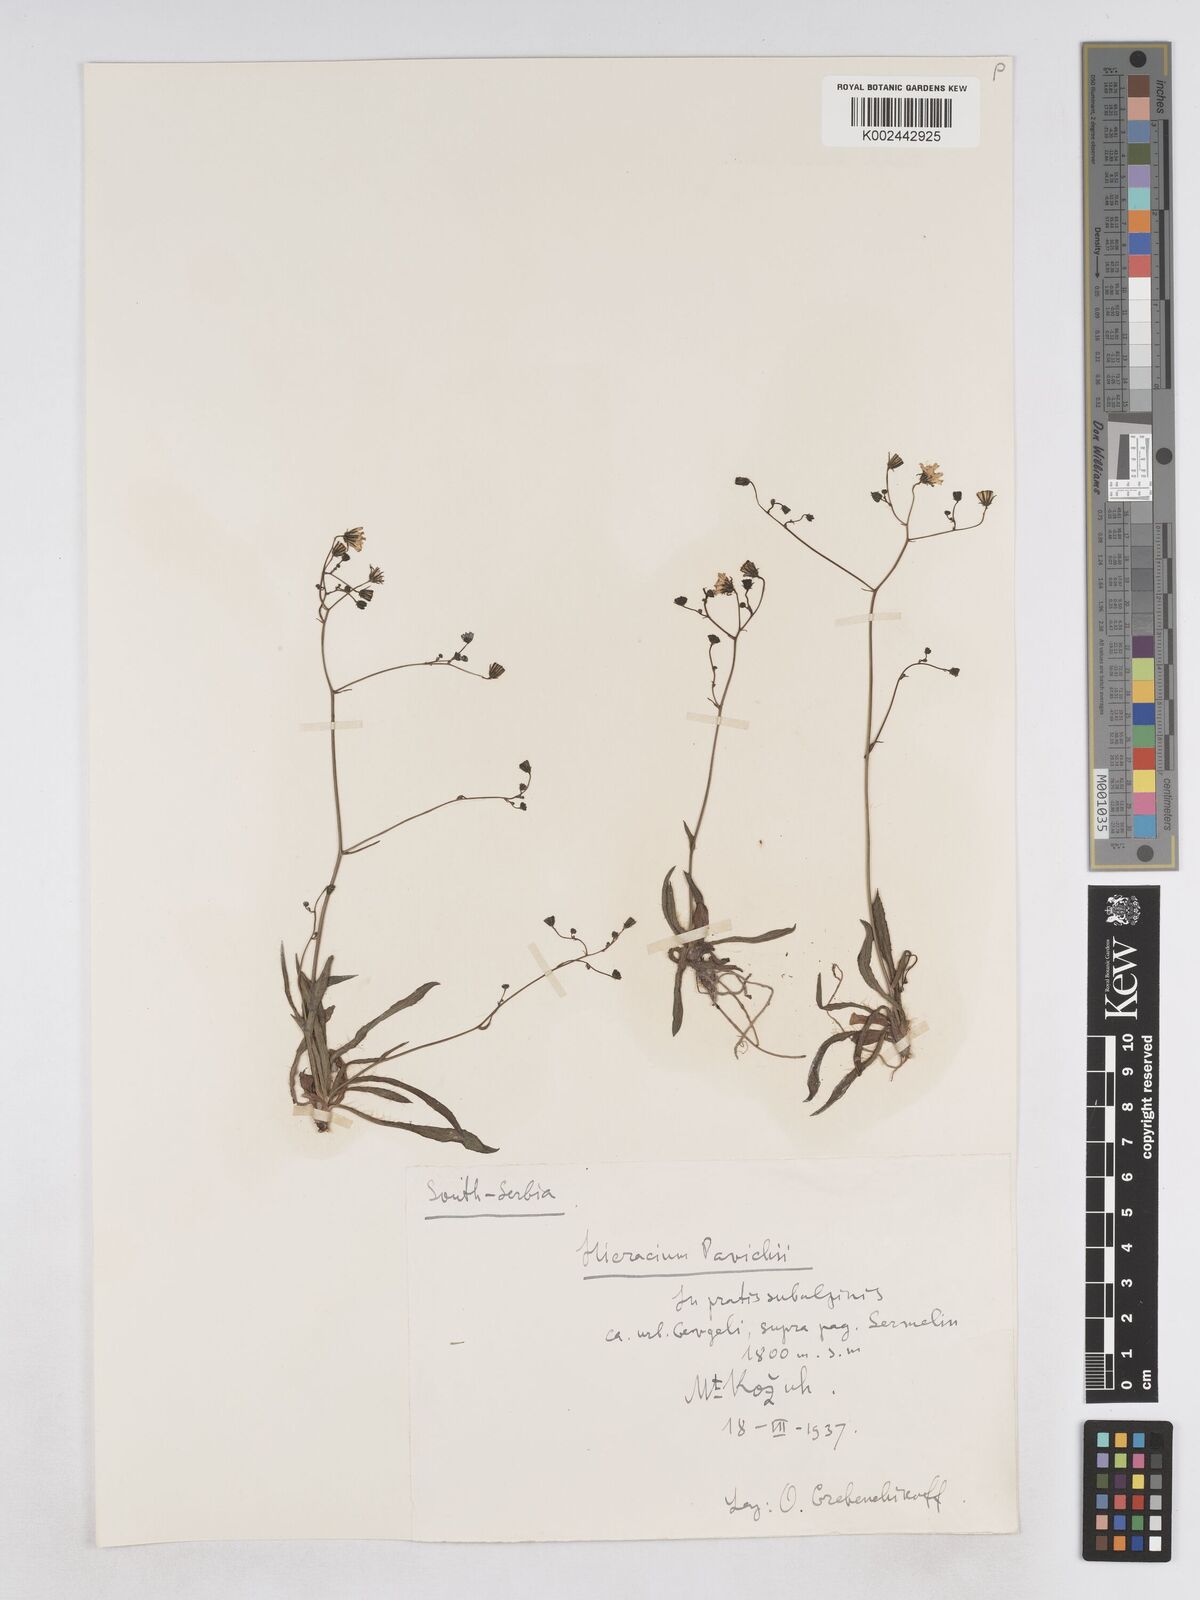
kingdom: Plantae
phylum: Tracheophyta
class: Magnoliopsida
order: Asterales
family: Asteraceae
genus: Pilosella
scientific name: Pilosella pavichii
